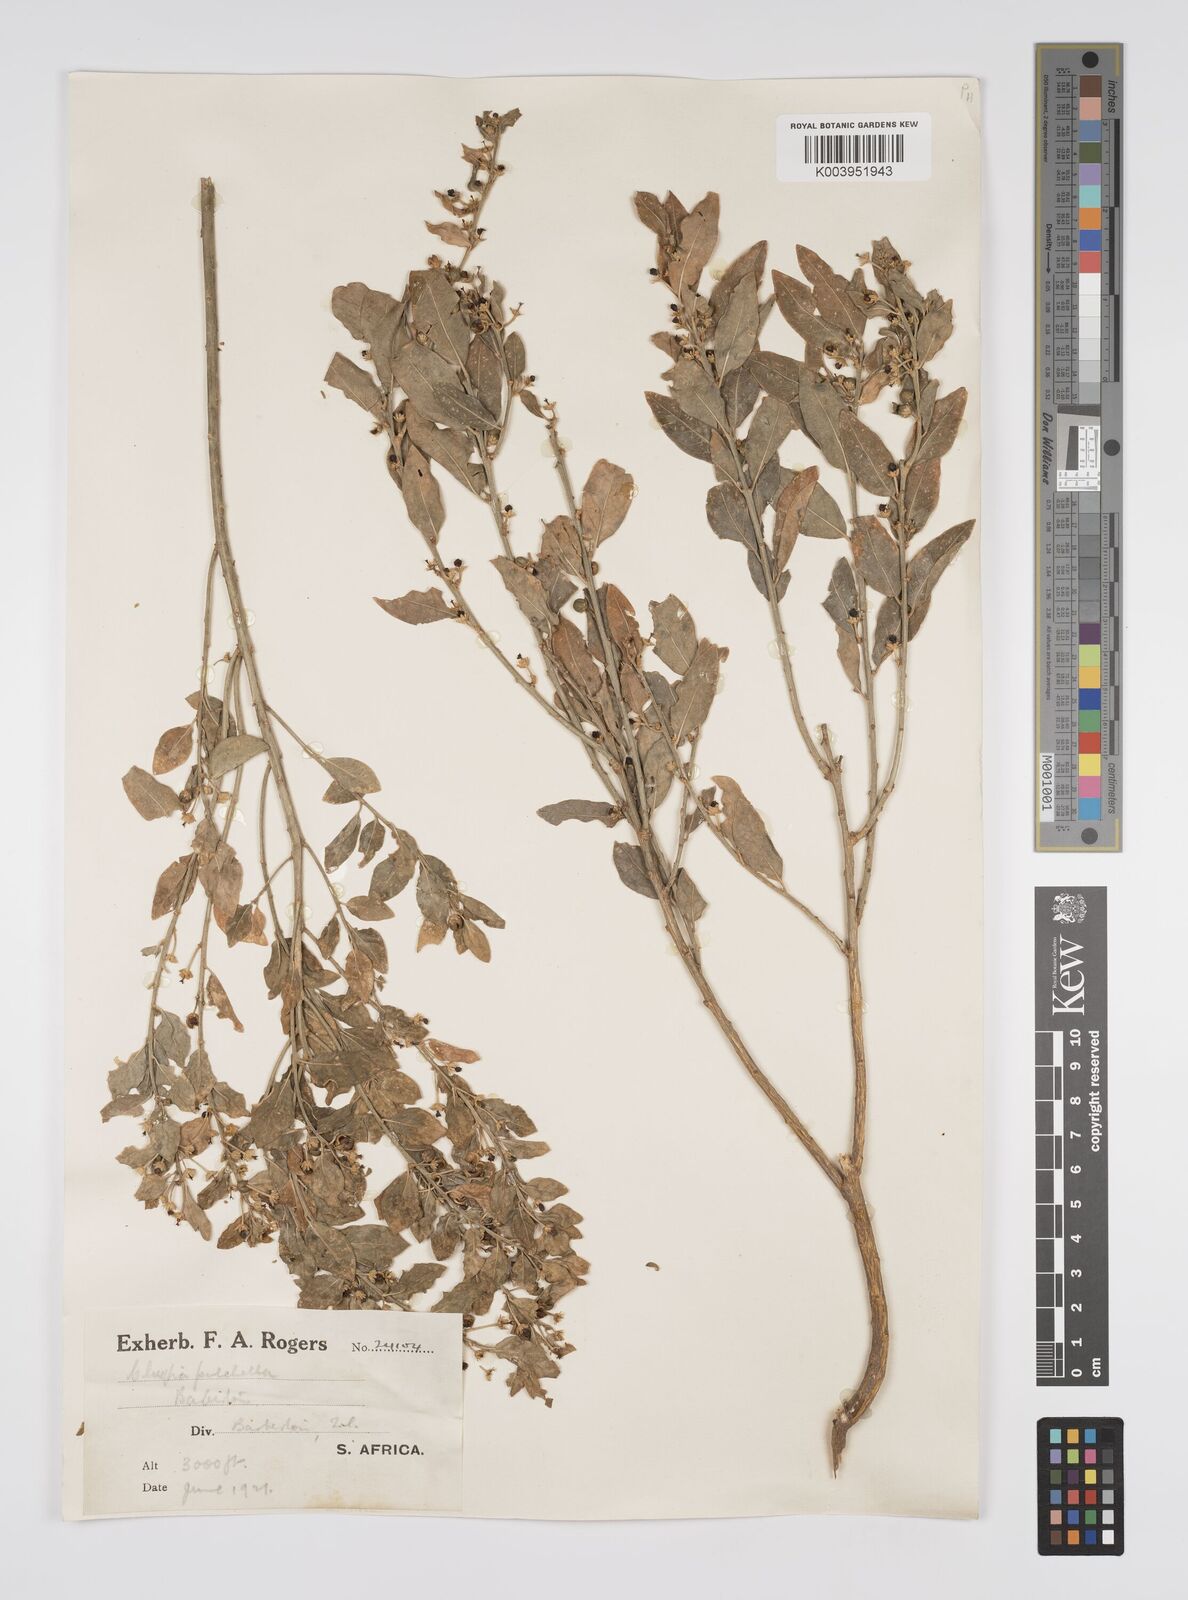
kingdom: Plantae
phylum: Tracheophyta
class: Magnoliopsida
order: Malpighiales
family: Peraceae
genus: Clutia
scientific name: Clutia pulchella
